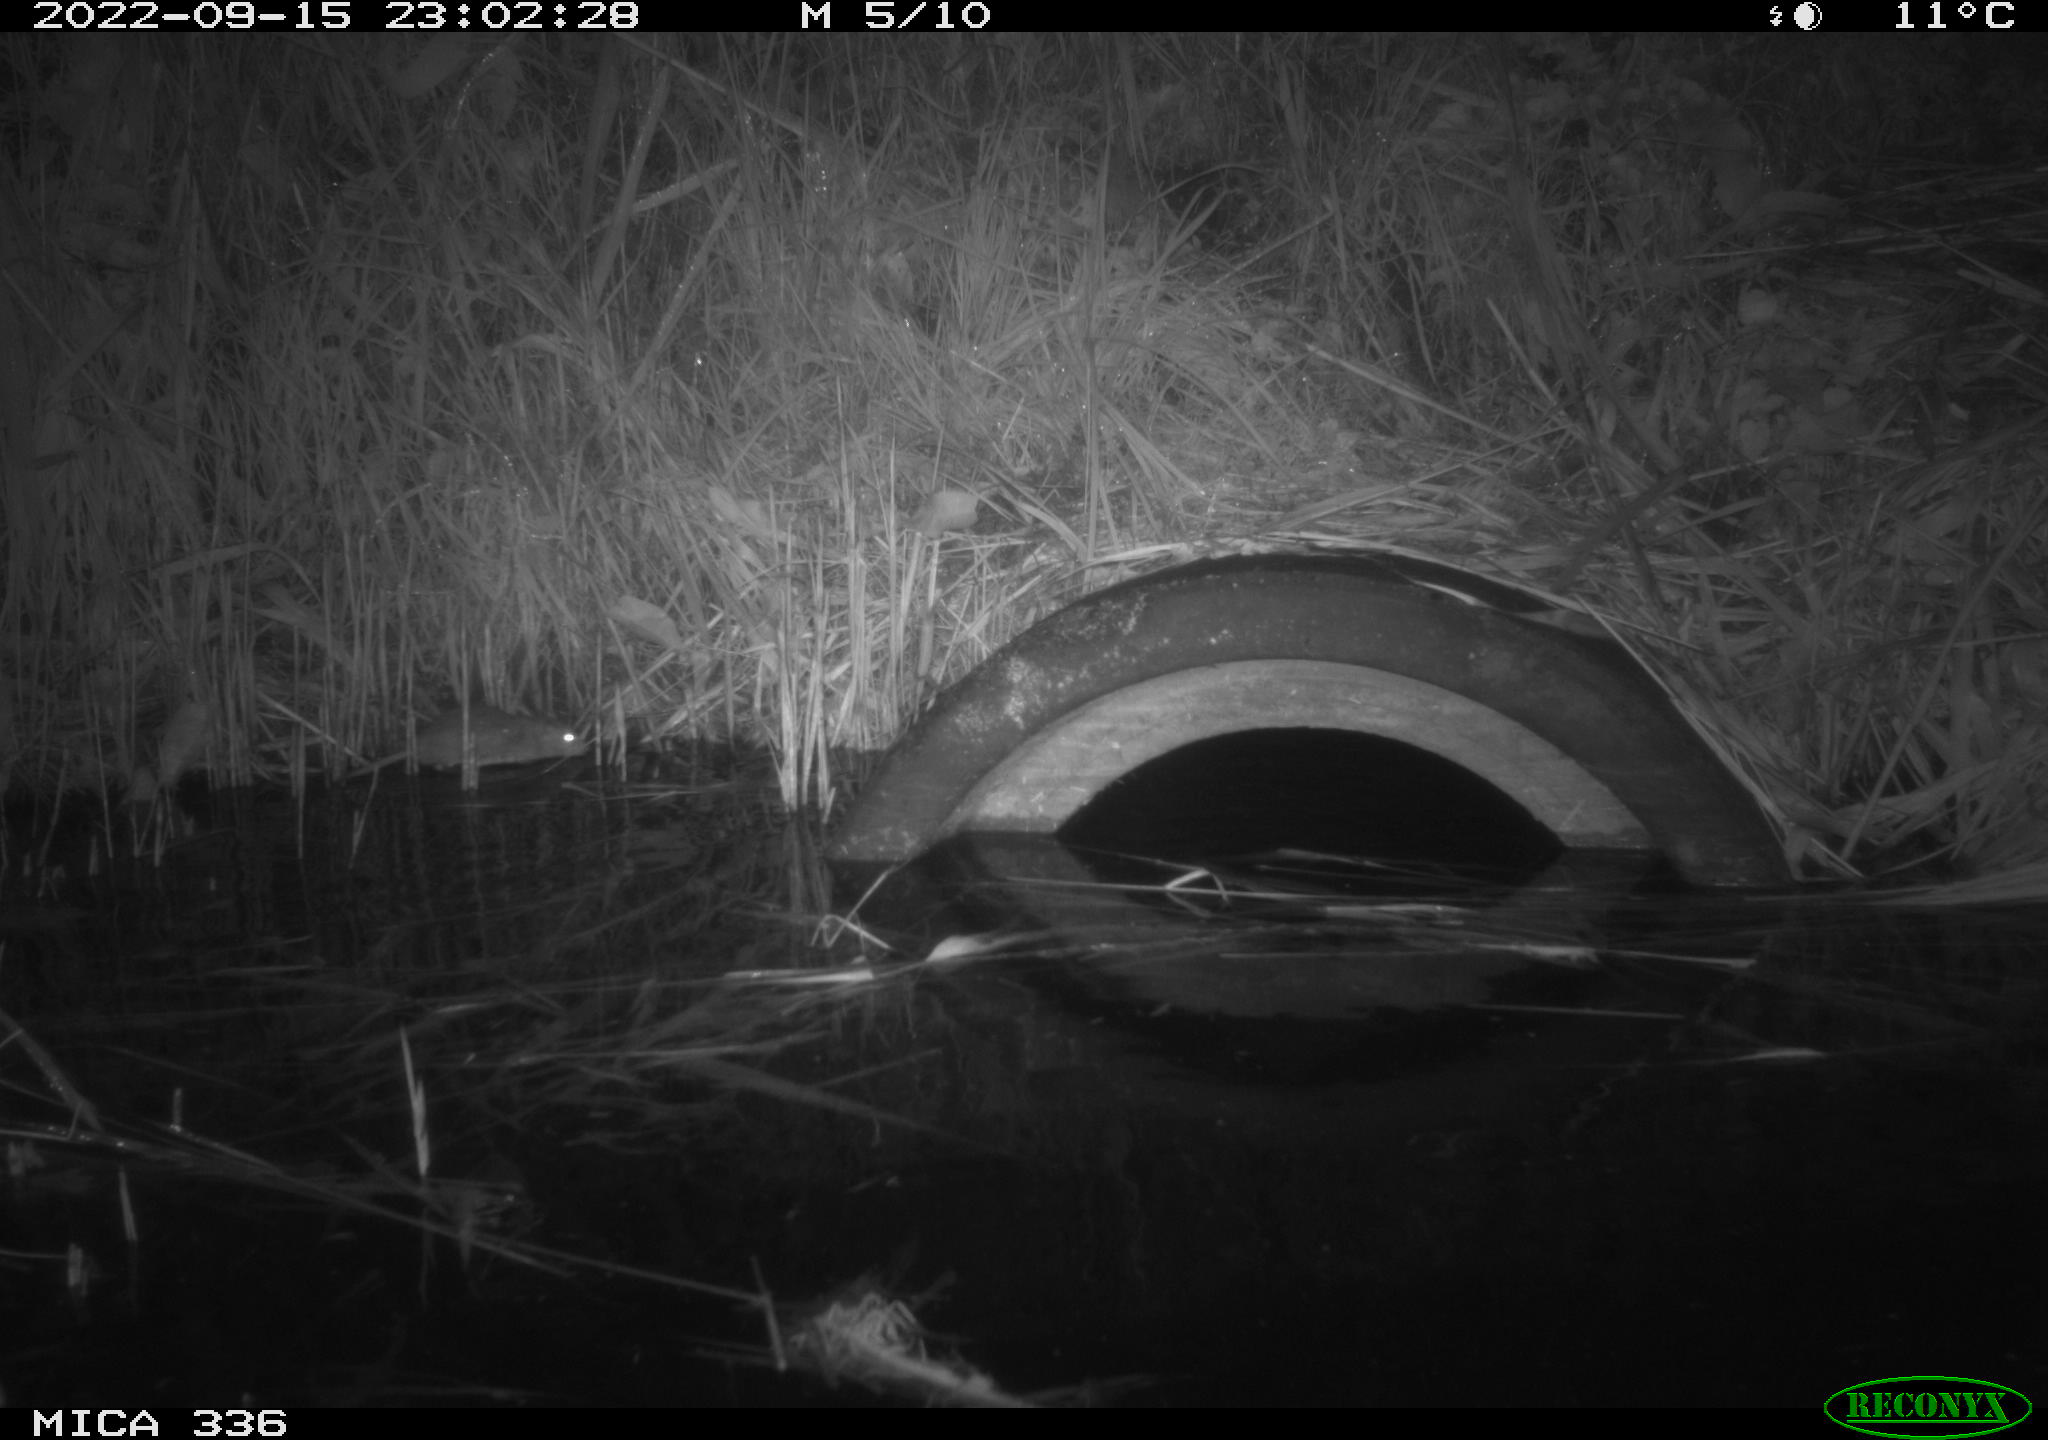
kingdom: Animalia
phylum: Chordata
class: Mammalia
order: Rodentia
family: Muridae
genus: Rattus
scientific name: Rattus norvegicus
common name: Brown rat
